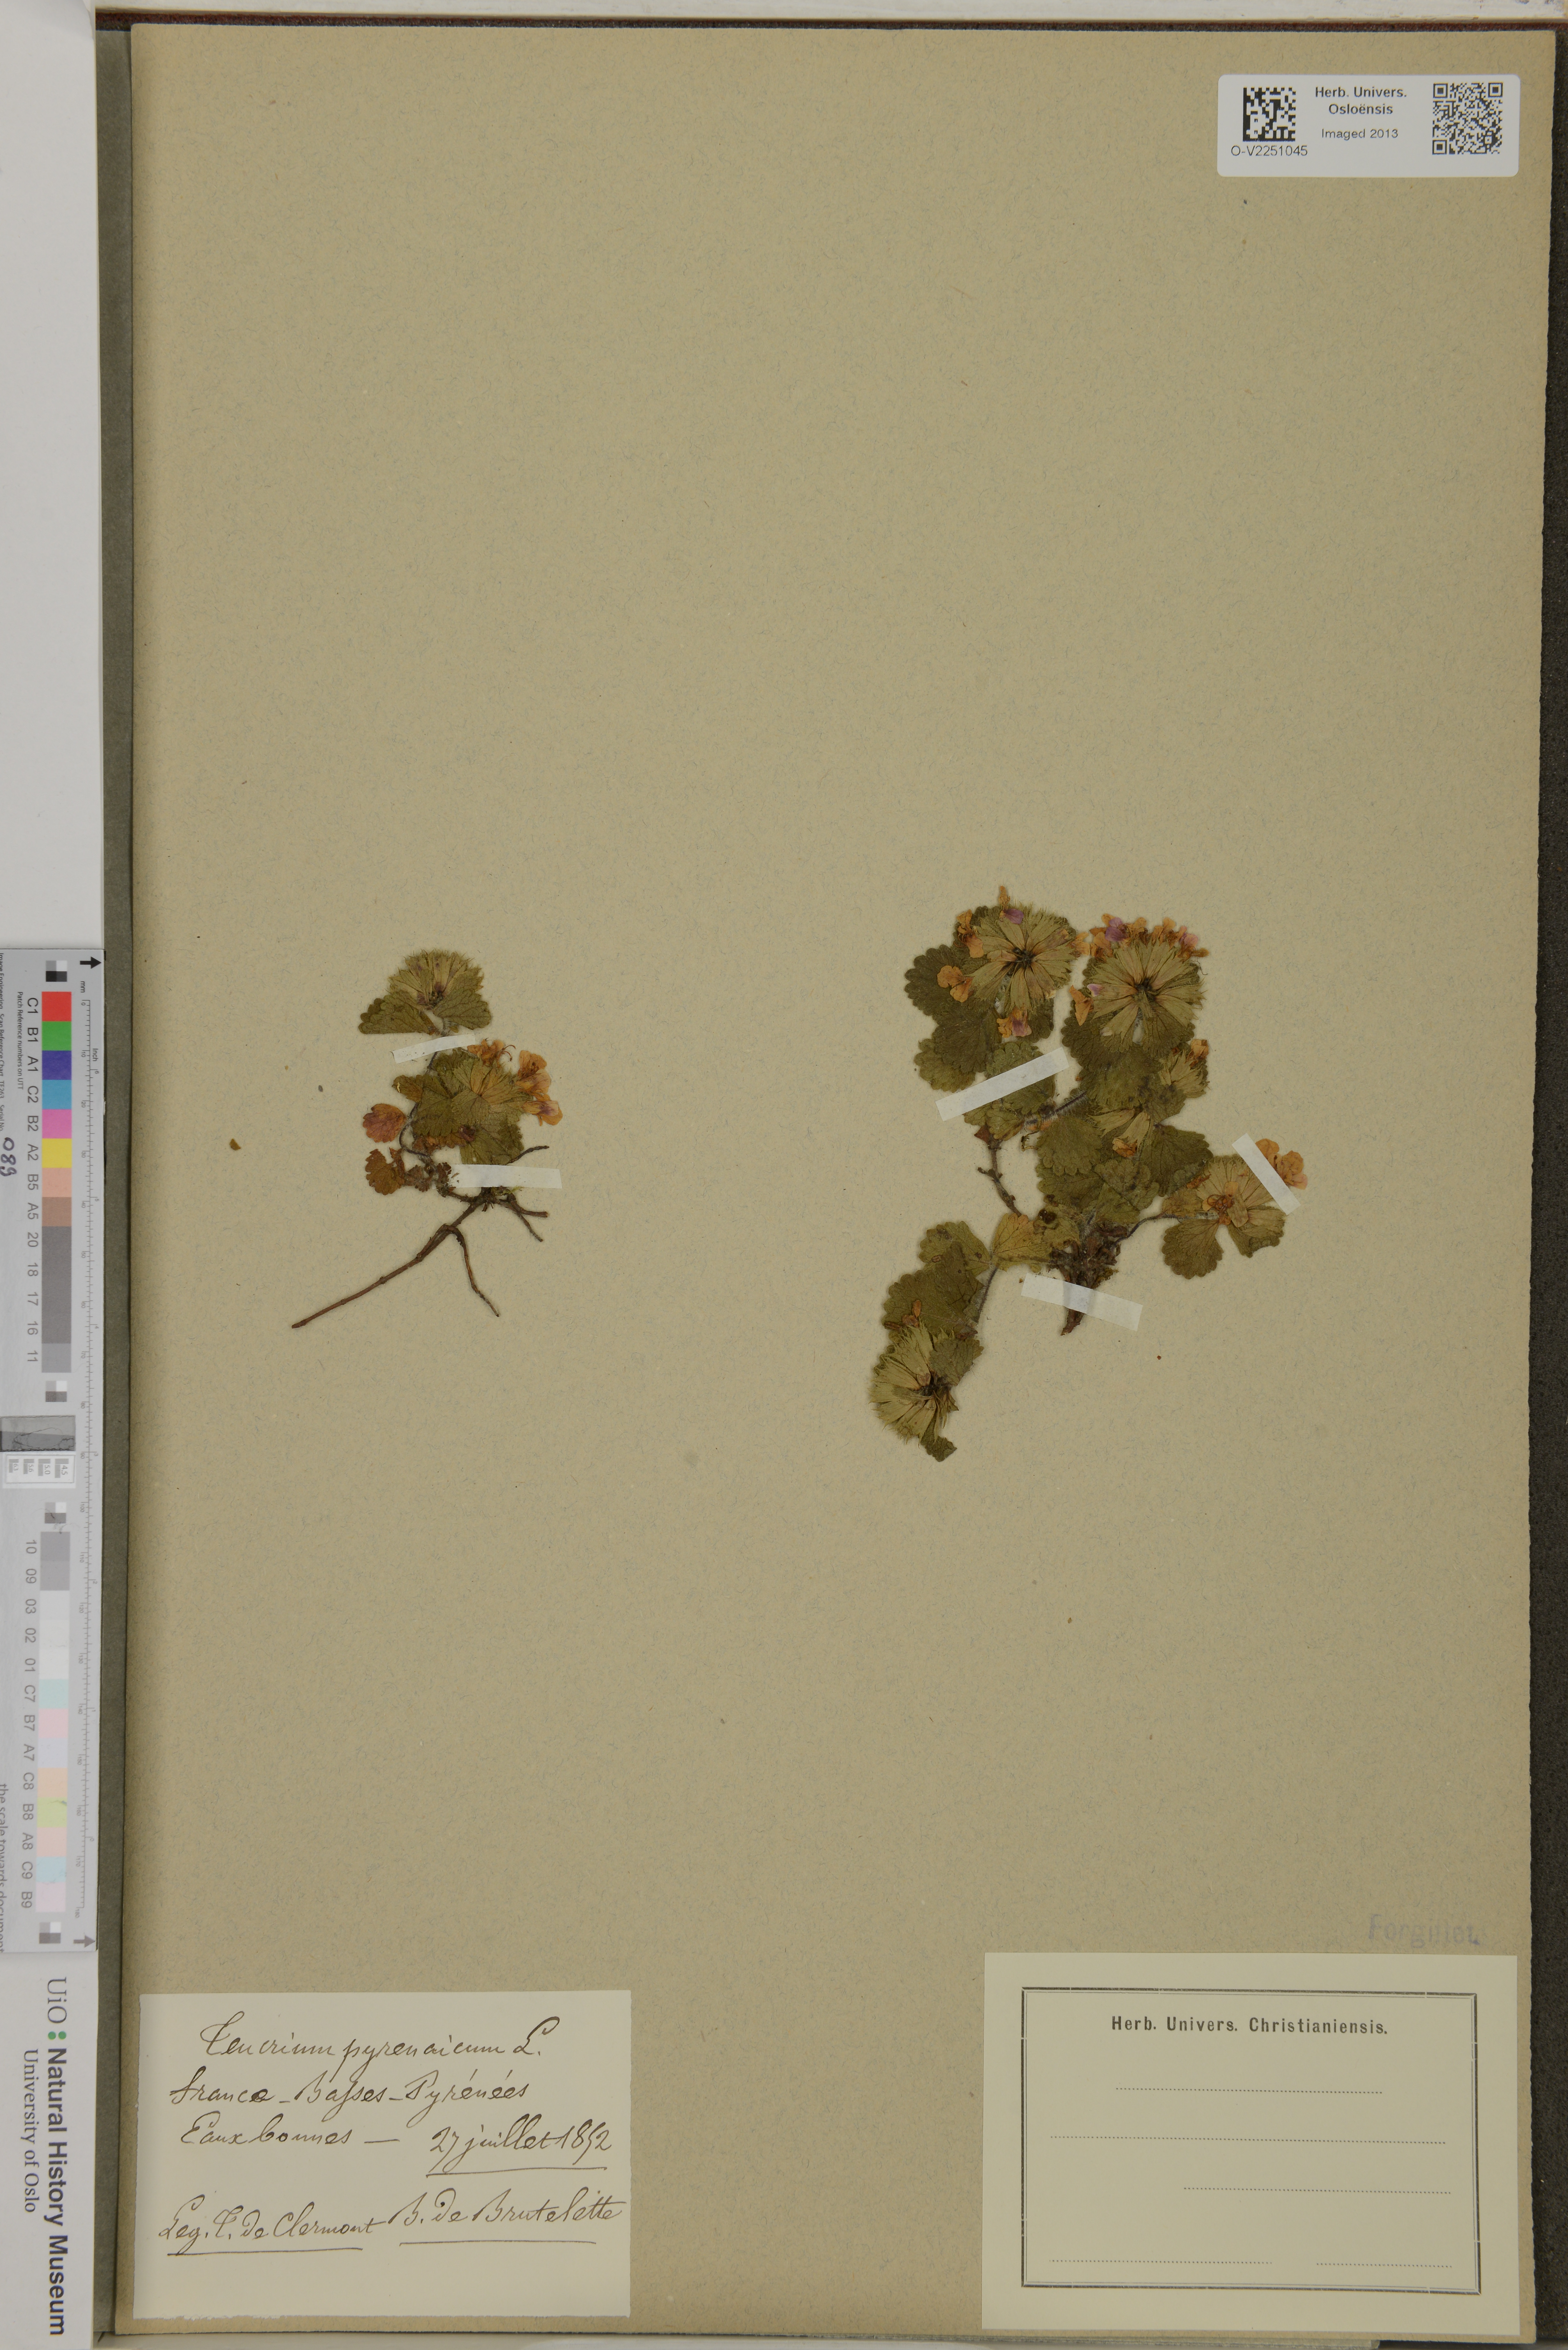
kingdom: Plantae
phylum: Tracheophyta
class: Magnoliopsida
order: Lamiales
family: Lamiaceae
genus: Teucrium
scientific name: Teucrium pyrenaicum
